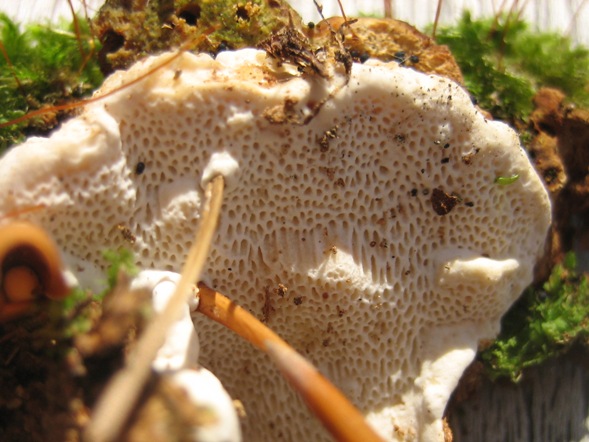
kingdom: Fungi
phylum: Basidiomycota
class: Agaricomycetes
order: Russulales
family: Bondarzewiaceae
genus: Heterobasidion
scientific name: Heterobasidion annosum
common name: almindelig rodfordærver
